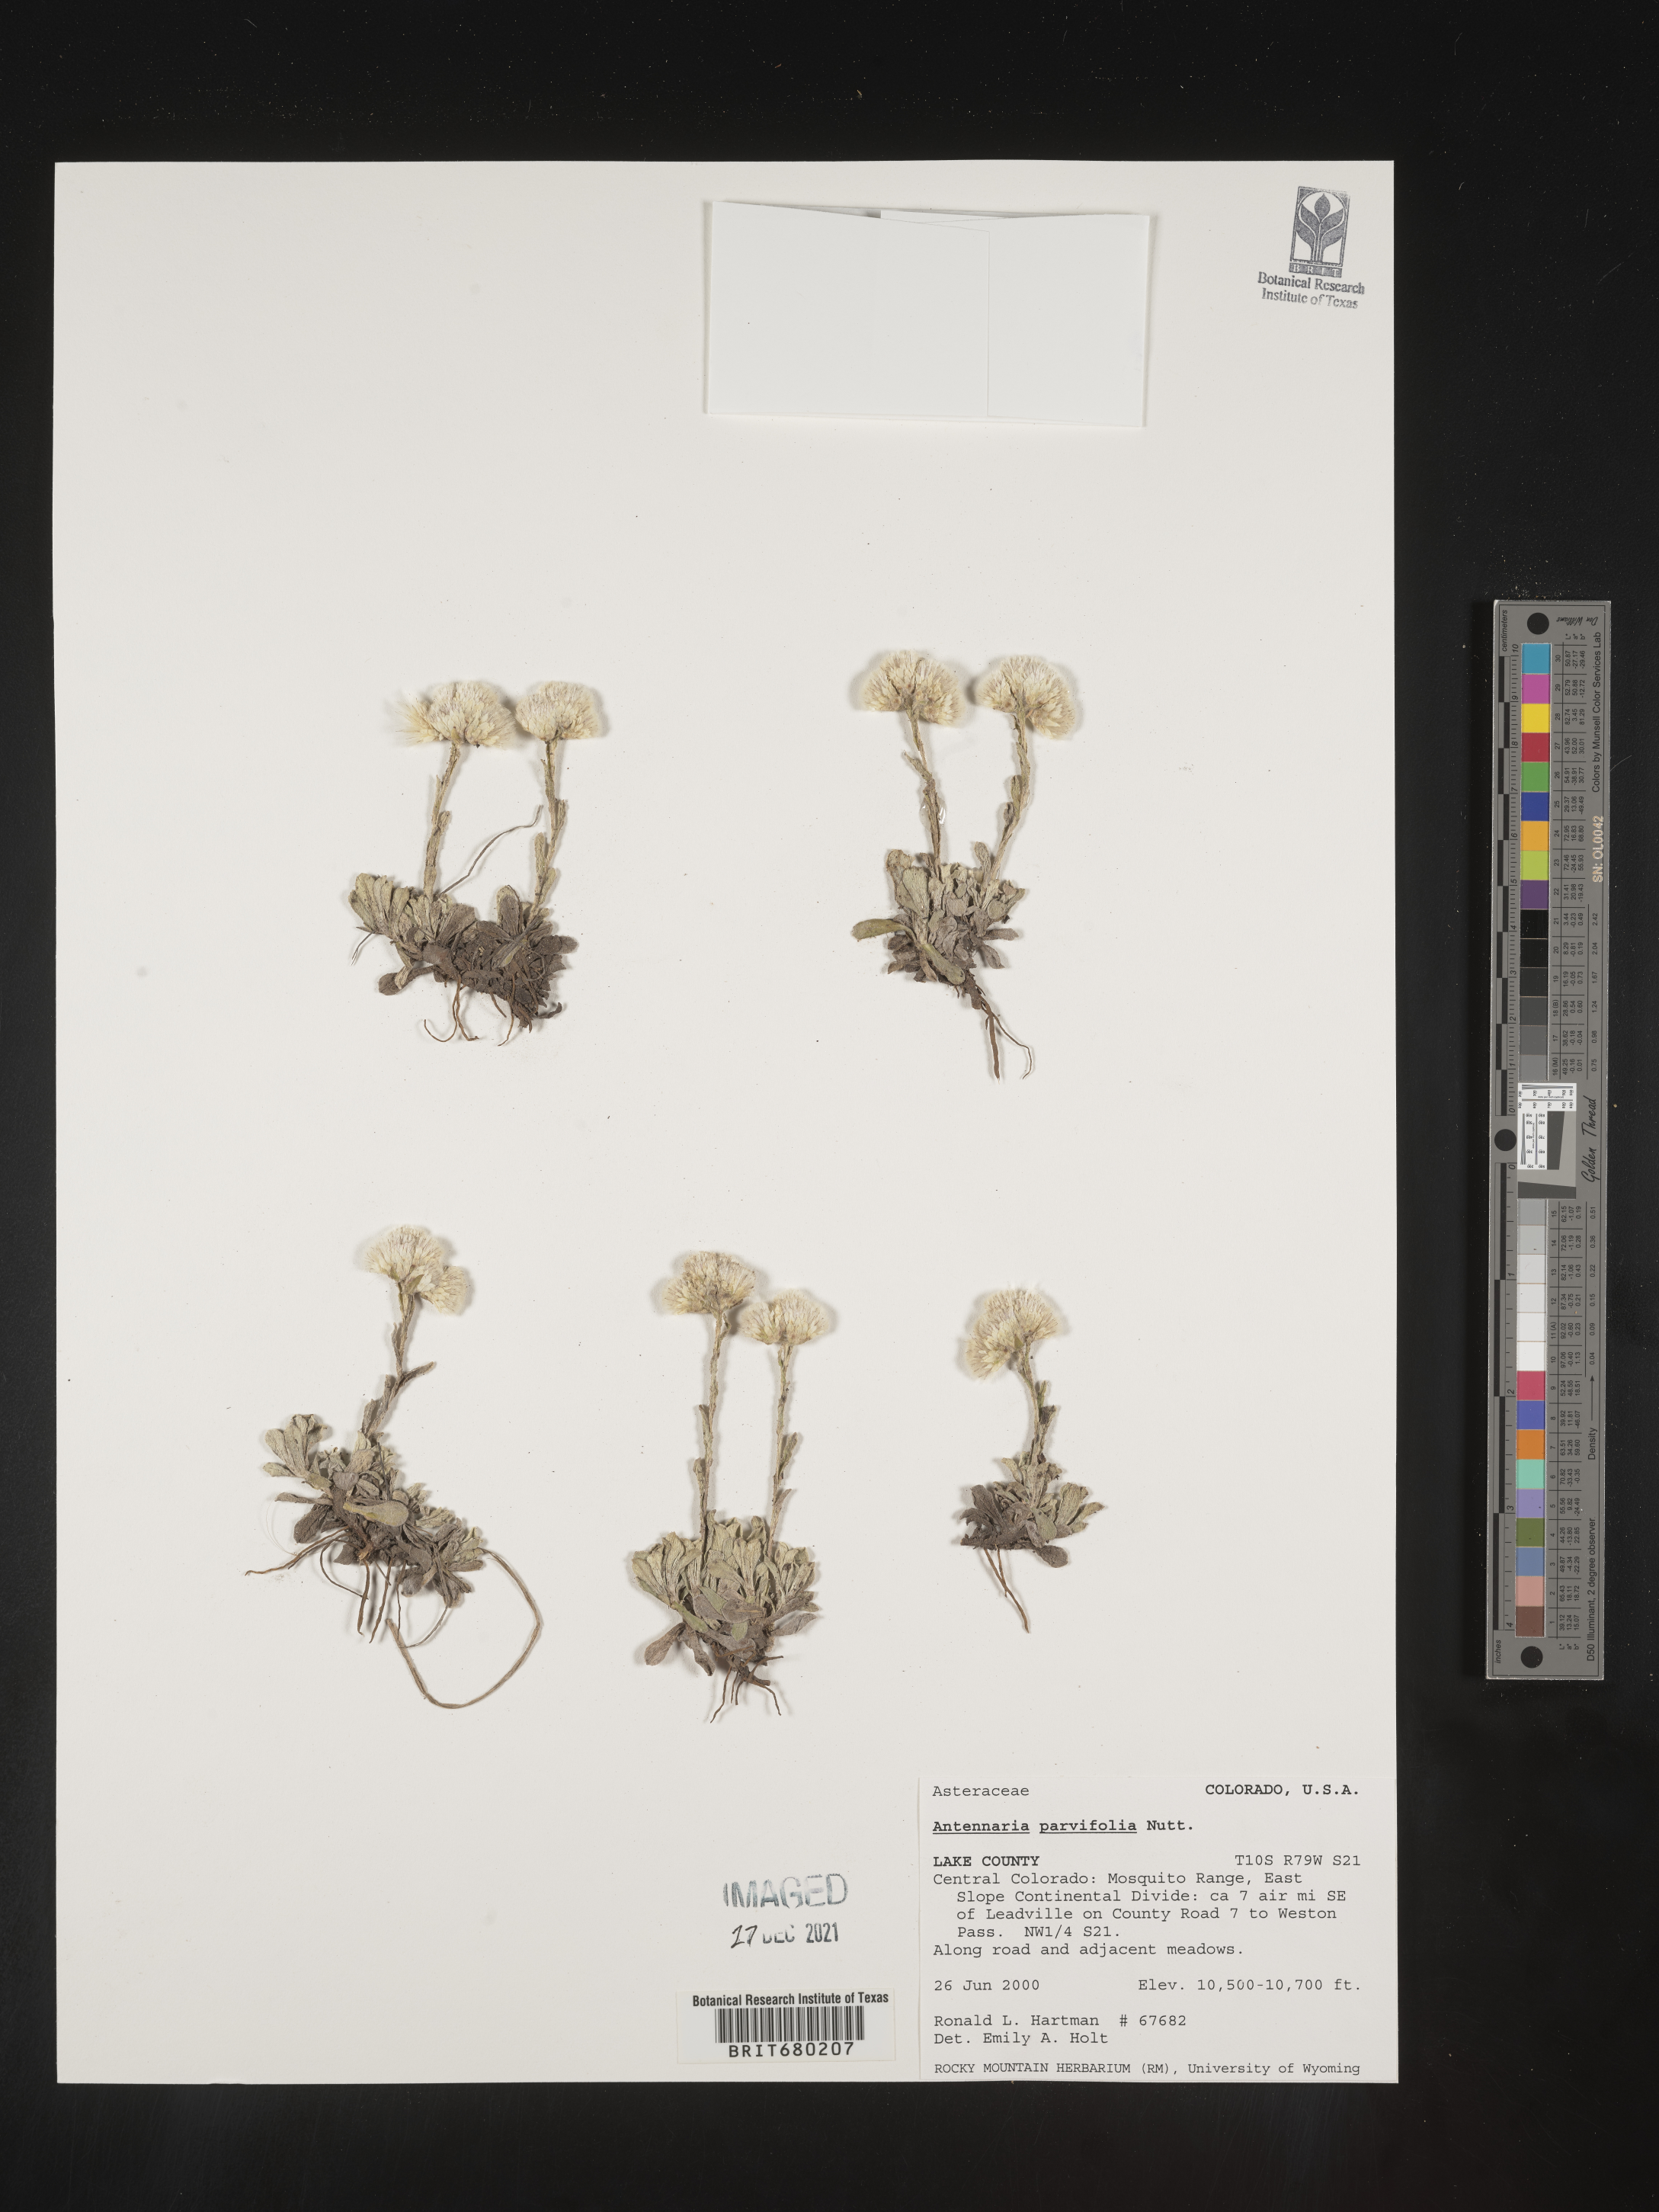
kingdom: Plantae
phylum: Tracheophyta
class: Magnoliopsida
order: Asterales
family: Asteraceae
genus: Antennaria
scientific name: Antennaria plantaginifolia
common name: Plantain-leaved pussytoes
